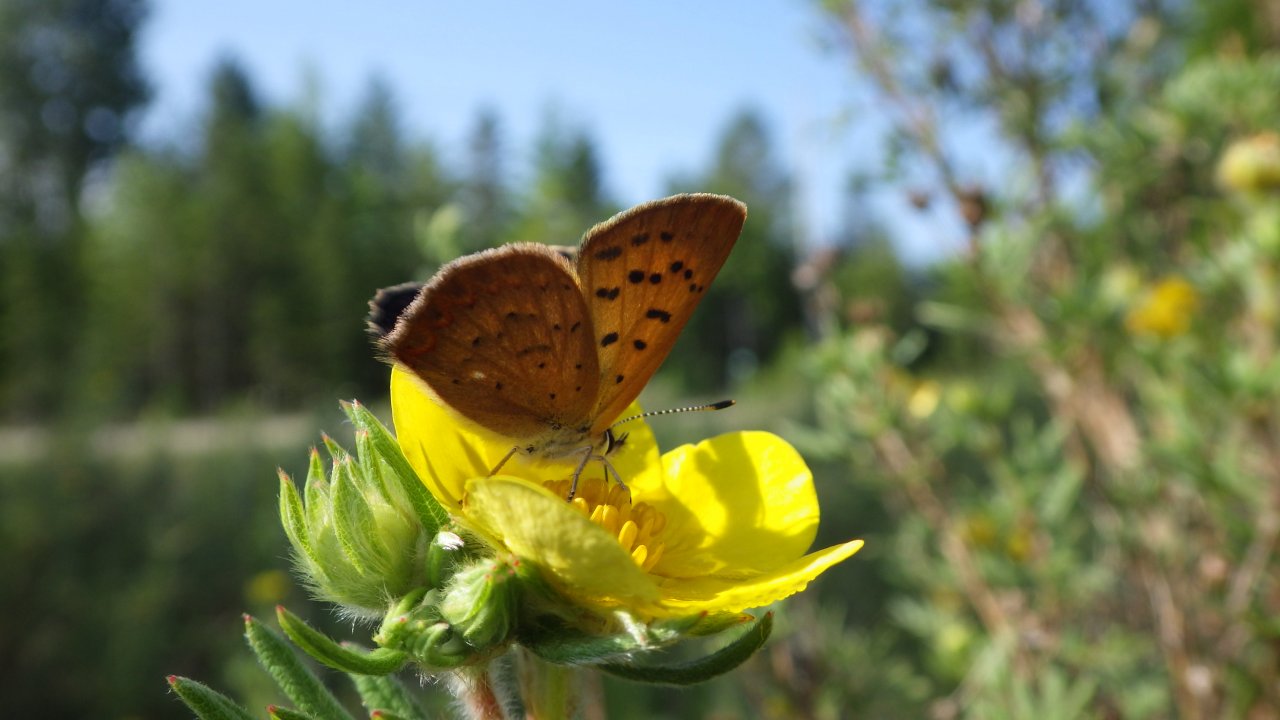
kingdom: Animalia
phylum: Arthropoda
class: Insecta
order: Lepidoptera
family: Lycaenidae
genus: Epidemia
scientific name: Epidemia dorcas
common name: Dorcas Copper
